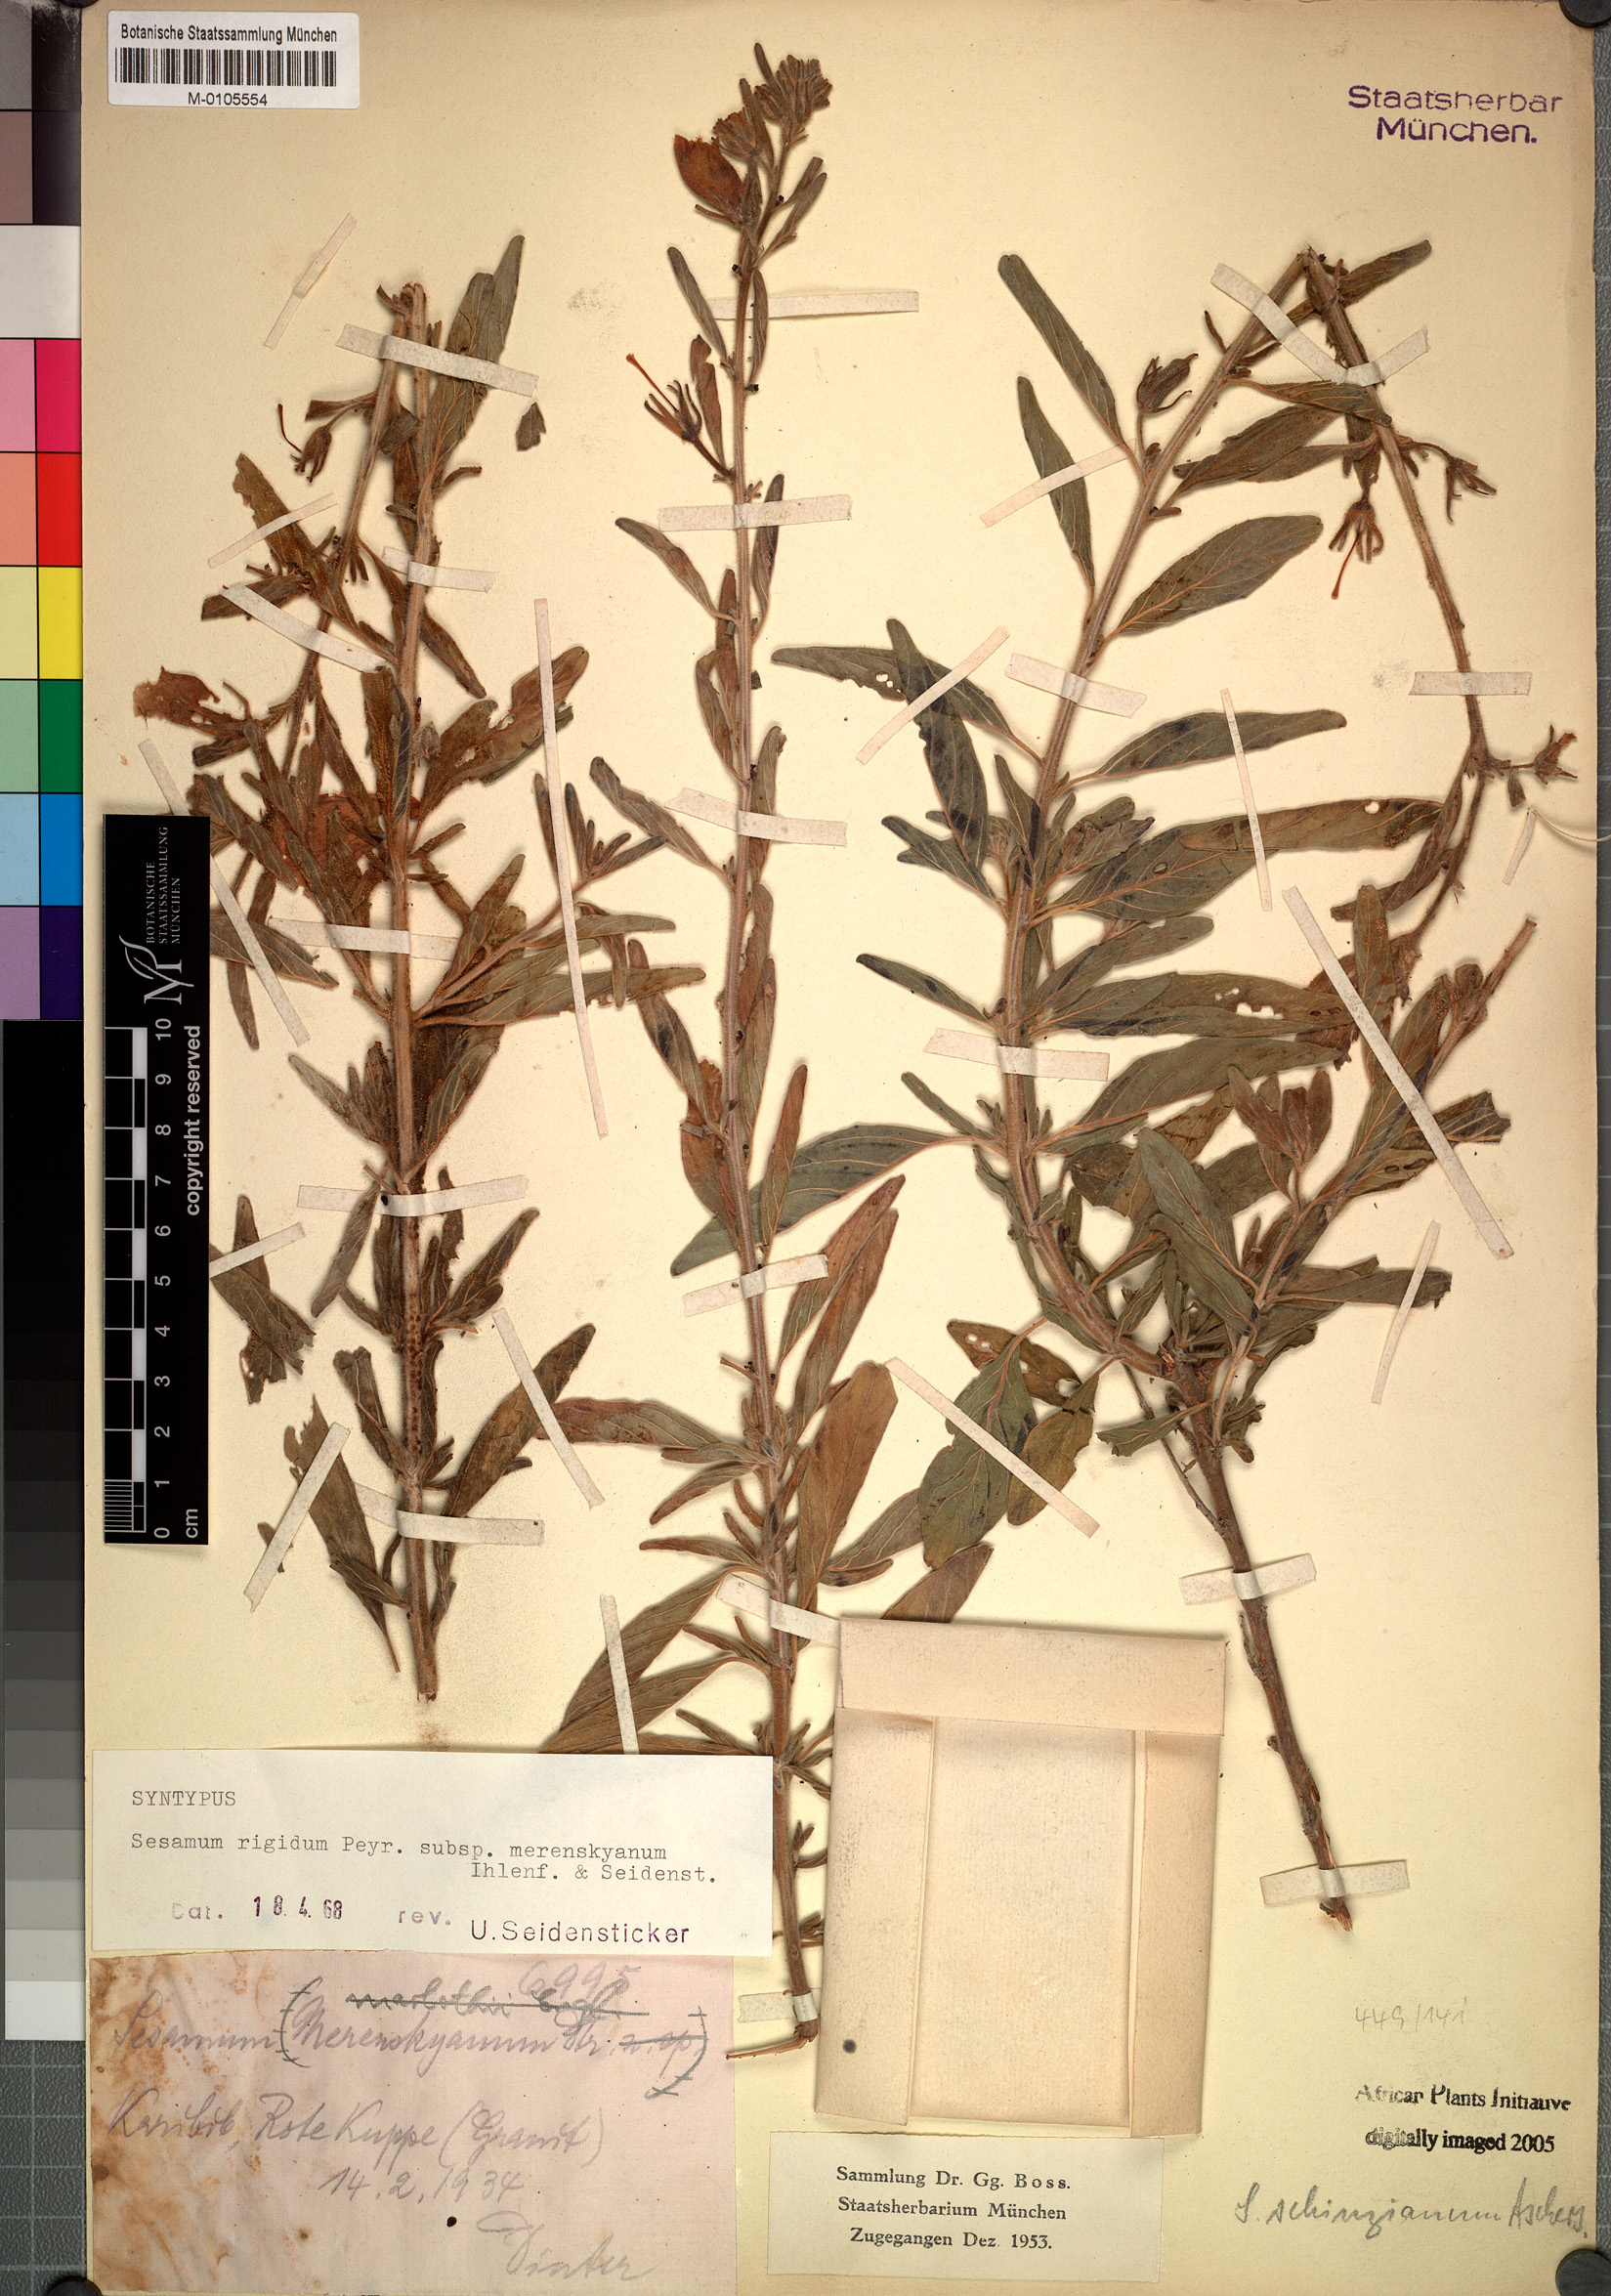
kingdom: Plantae
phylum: Tracheophyta
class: Magnoliopsida
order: Lamiales
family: Pedaliaceae
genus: Sesamum
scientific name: Sesamum rigidum
